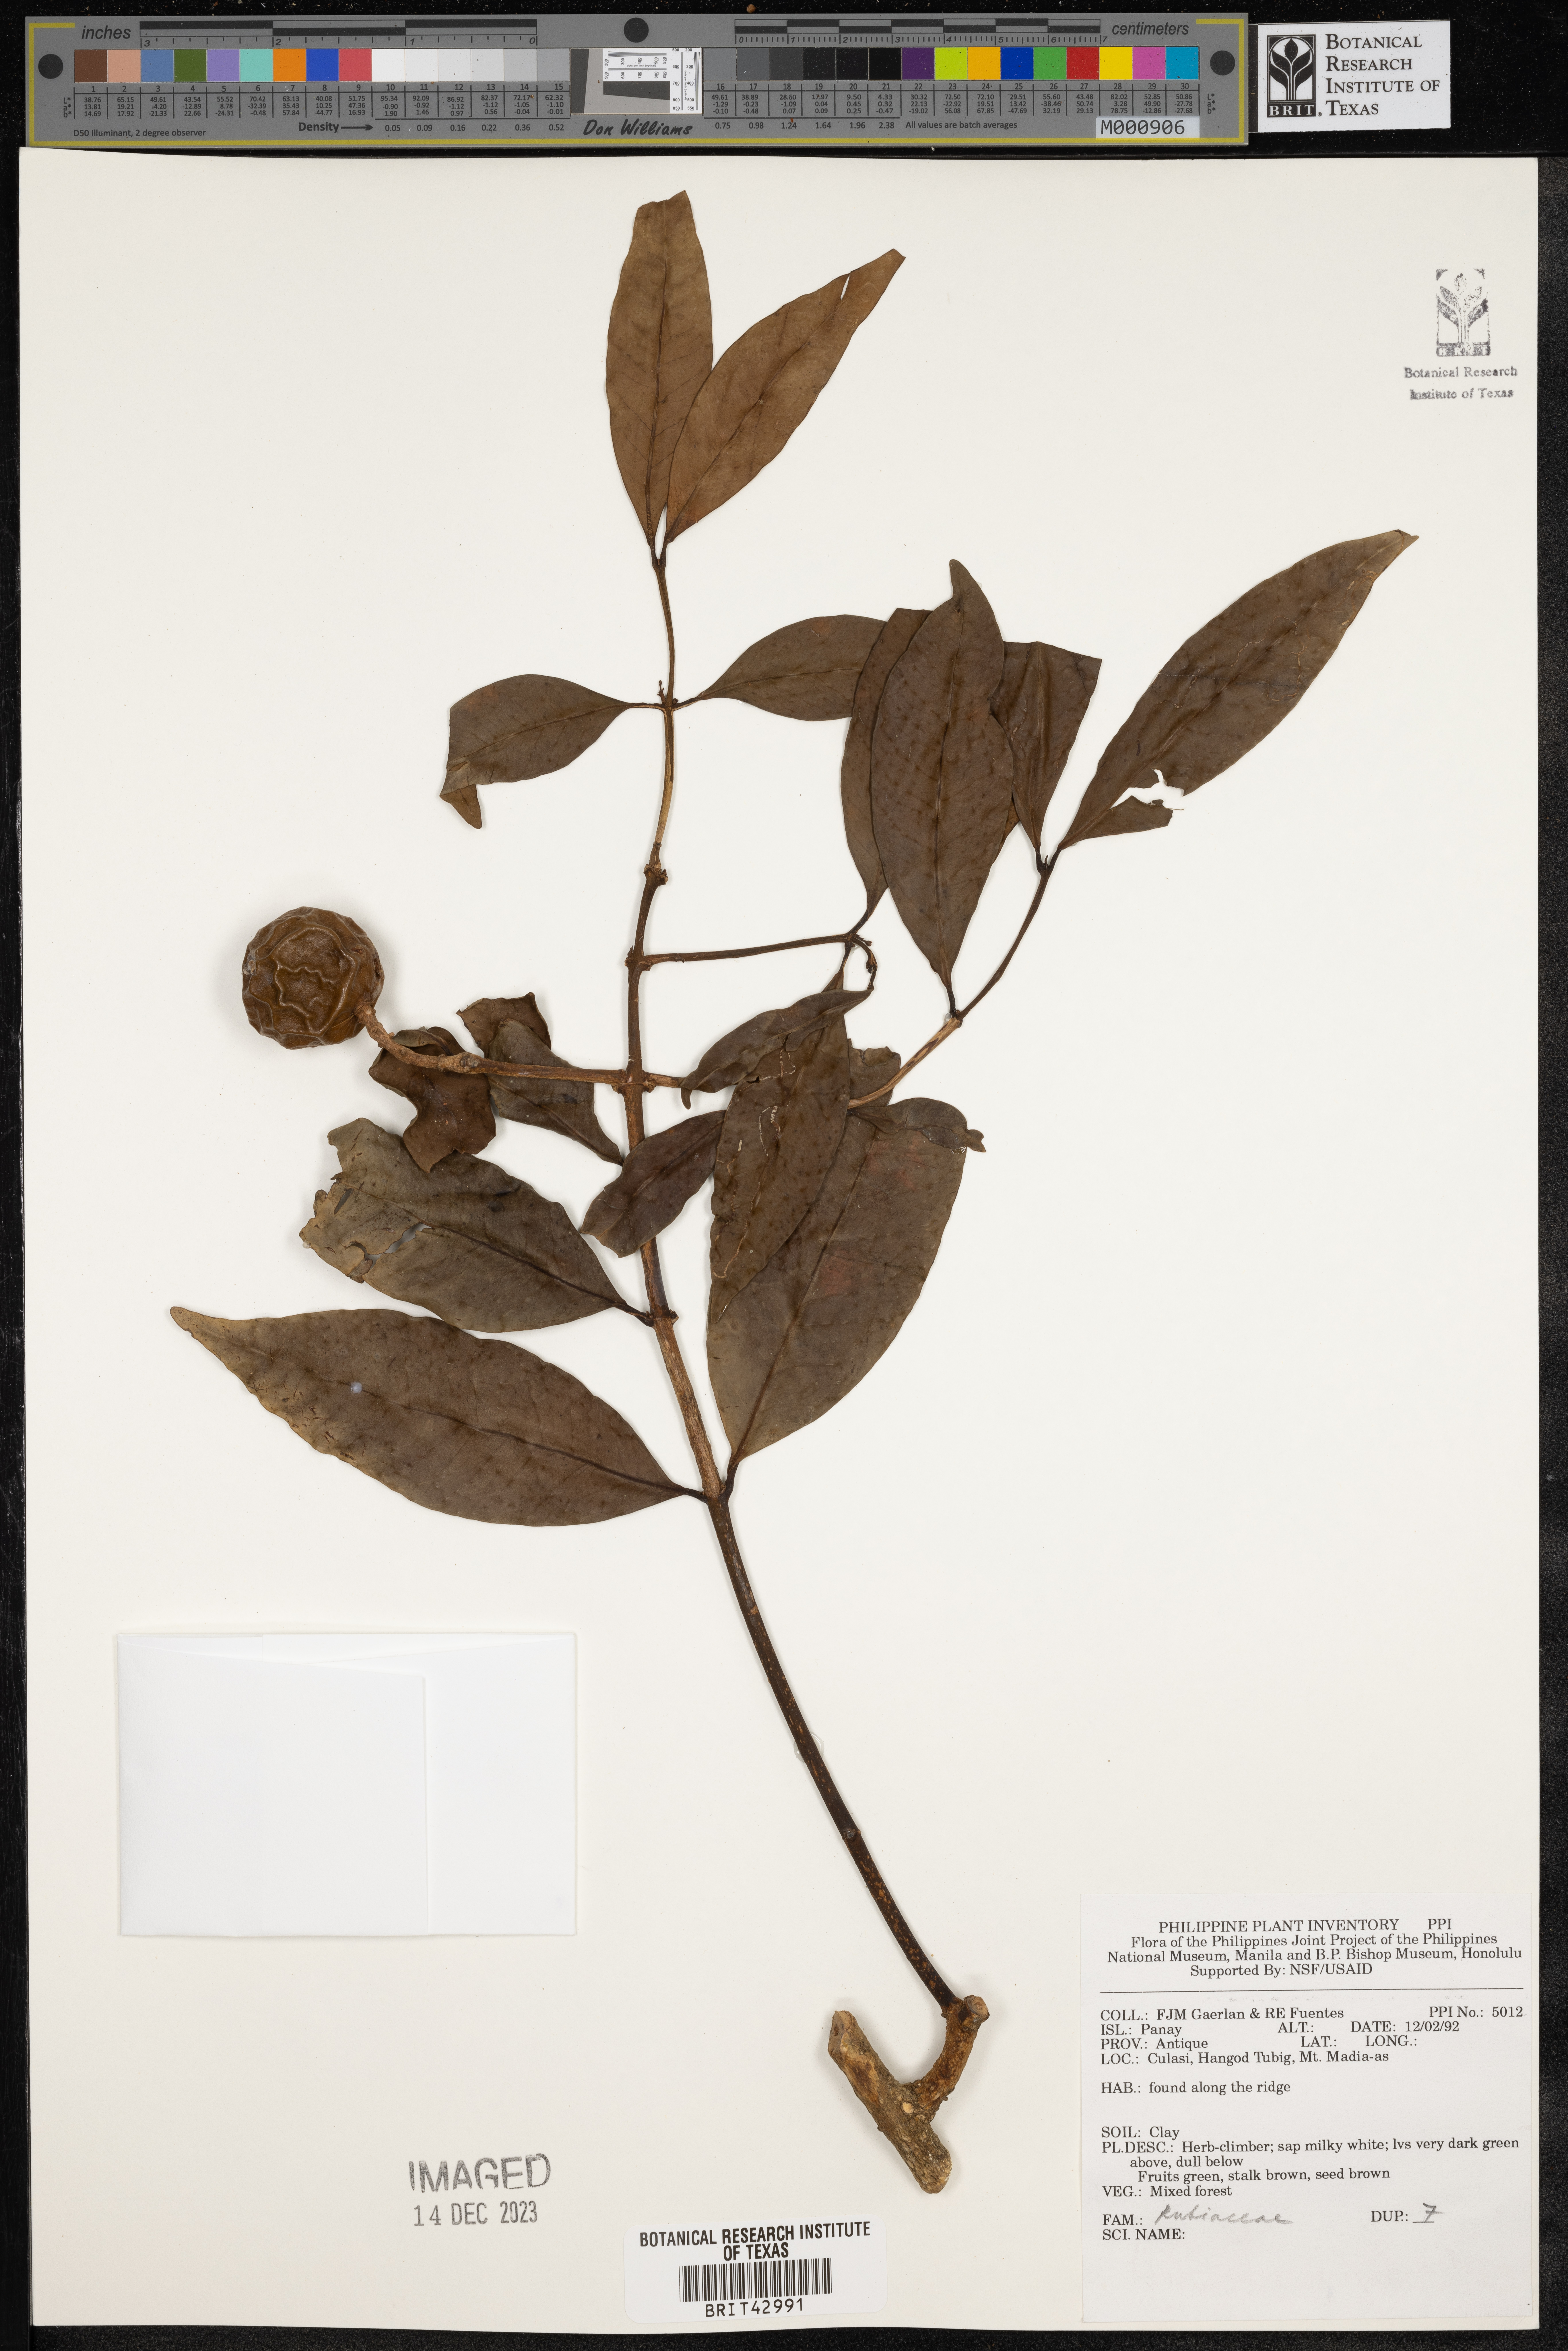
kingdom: Plantae
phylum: Tracheophyta
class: Magnoliopsida
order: Gentianales
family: Rubiaceae
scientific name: Rubiaceae
